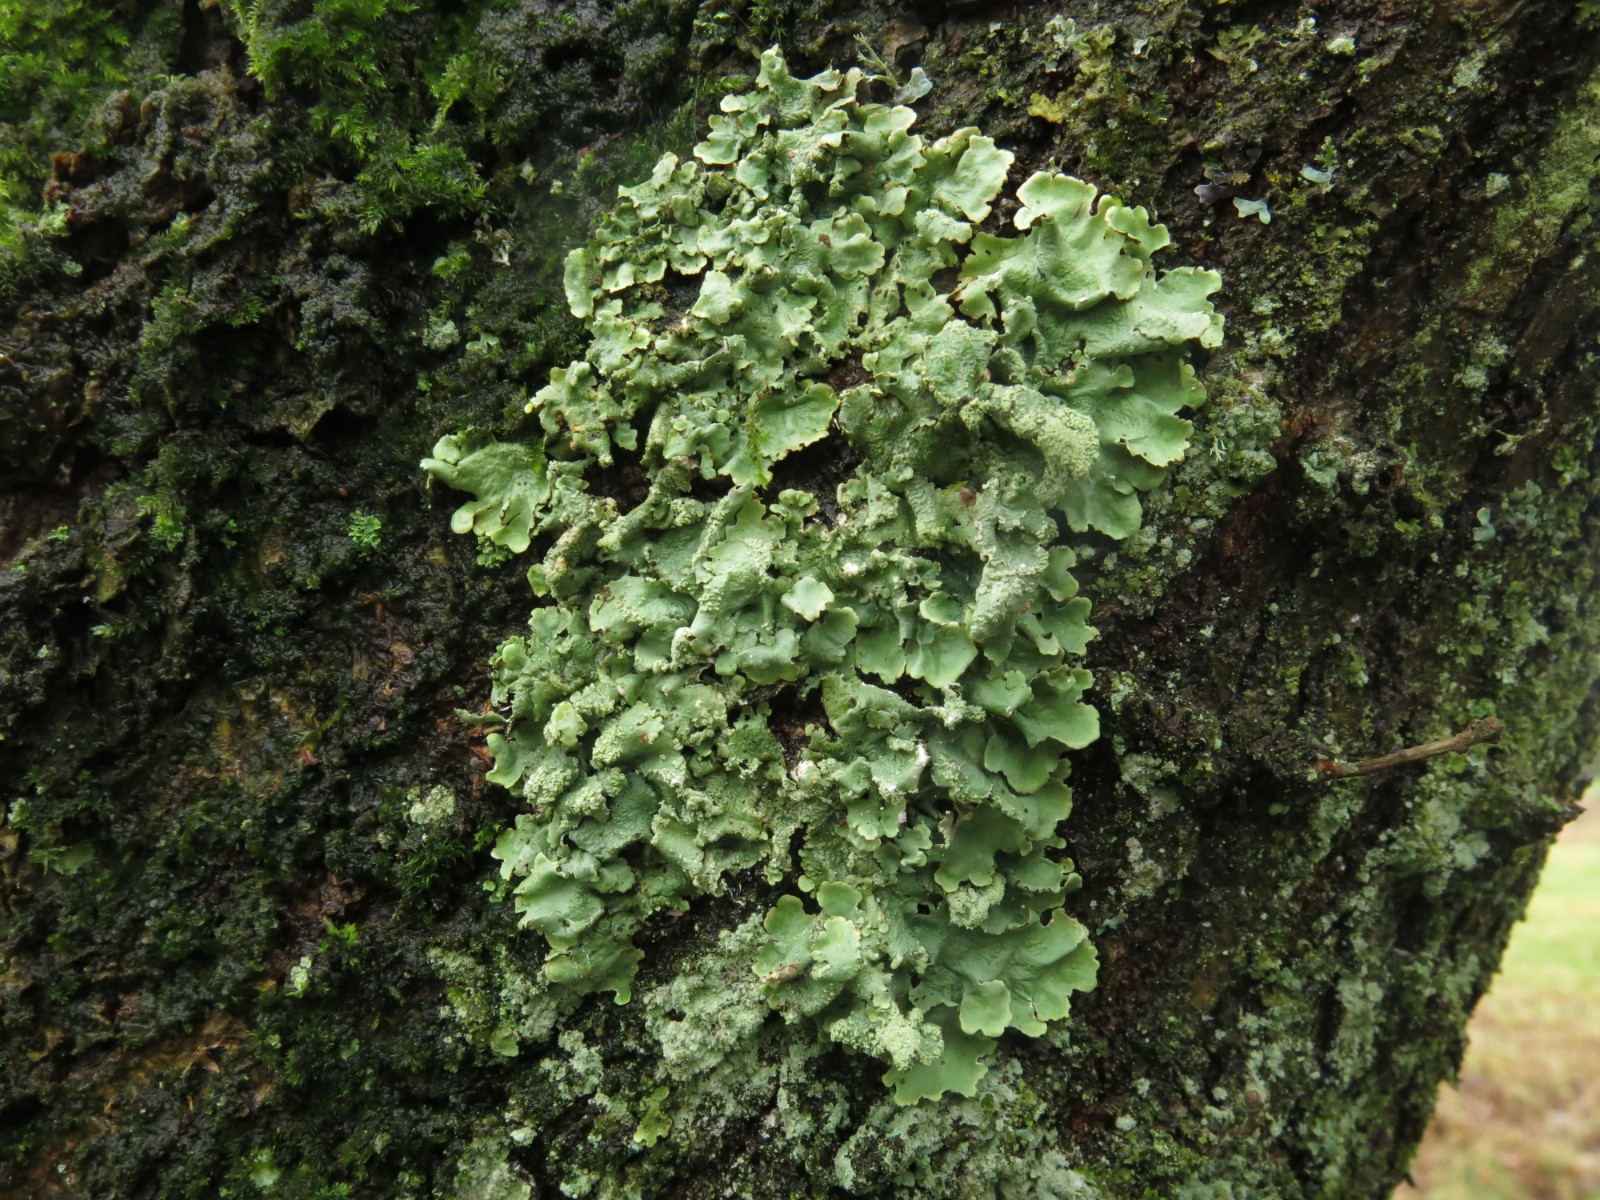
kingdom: Fungi
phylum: Ascomycota
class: Lecanoromycetes
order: Lecanorales
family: Parmeliaceae
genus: Flavoparmelia
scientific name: Flavoparmelia caperata
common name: gulgrøn skållav
